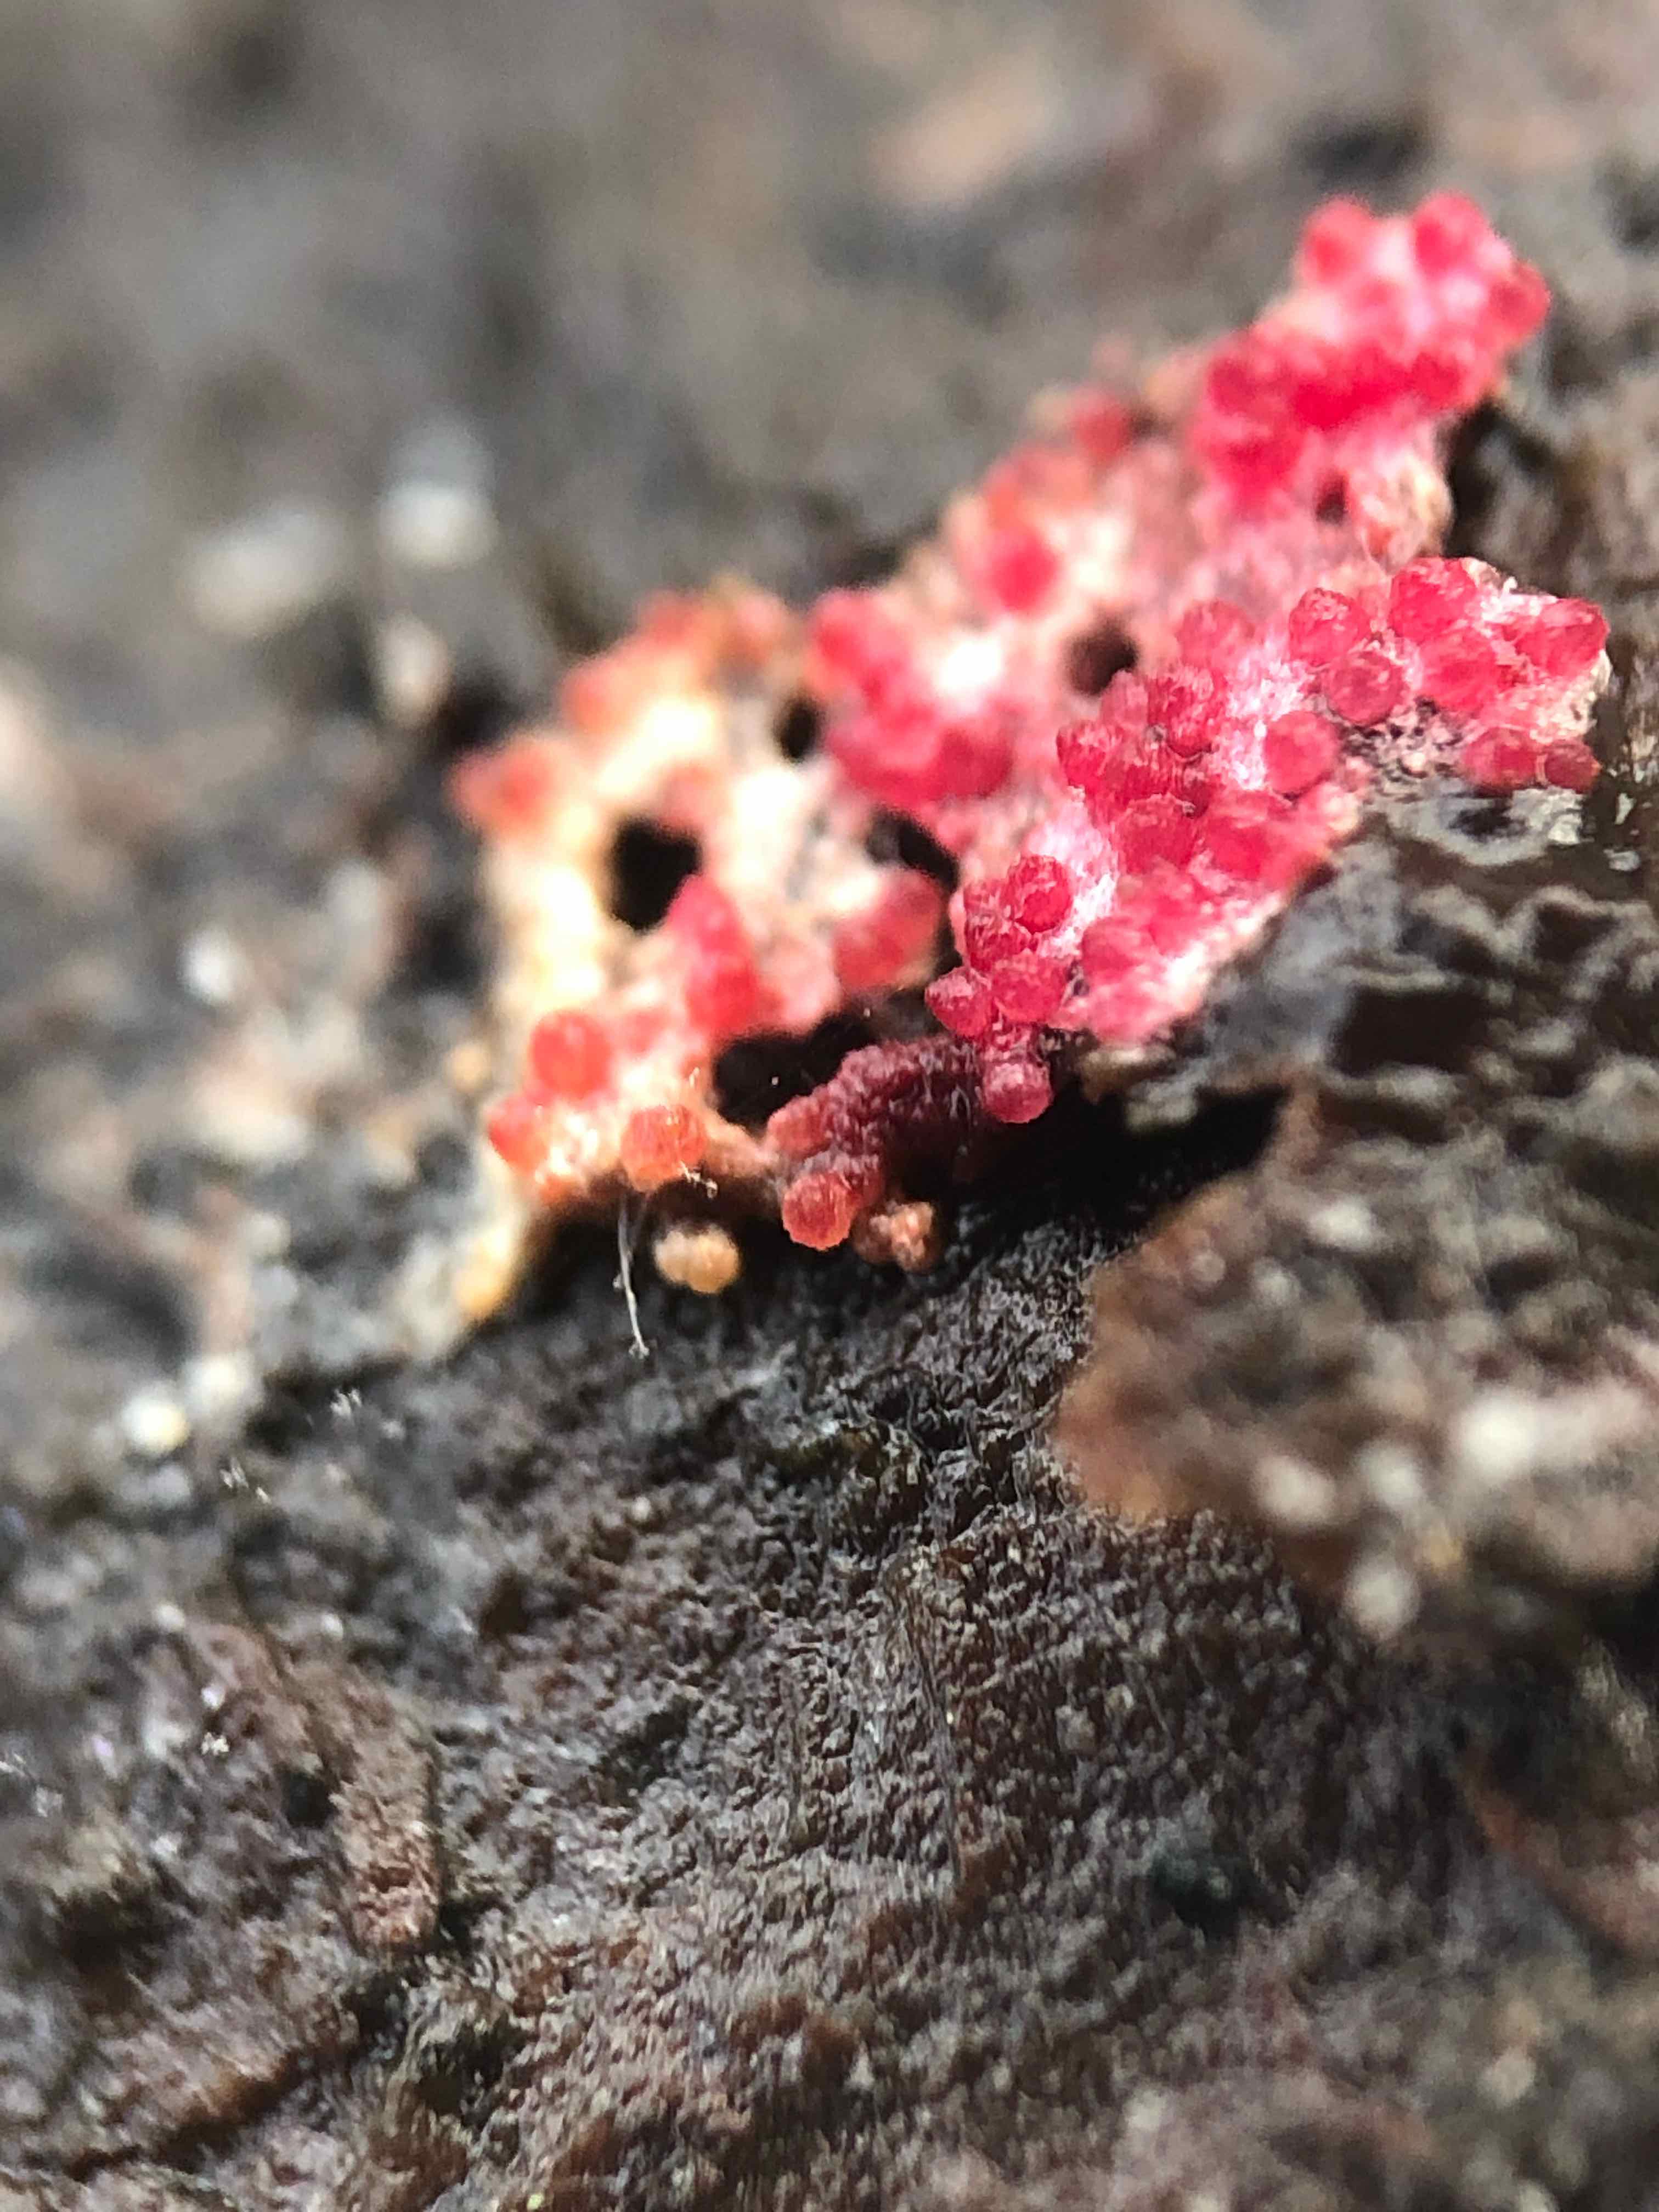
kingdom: Fungi
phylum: Ascomycota
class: Sordariomycetes
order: Hypocreales
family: Hypocreaceae
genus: Hypomyces
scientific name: Hypomyces rosellus
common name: rosa snylteskorpe
